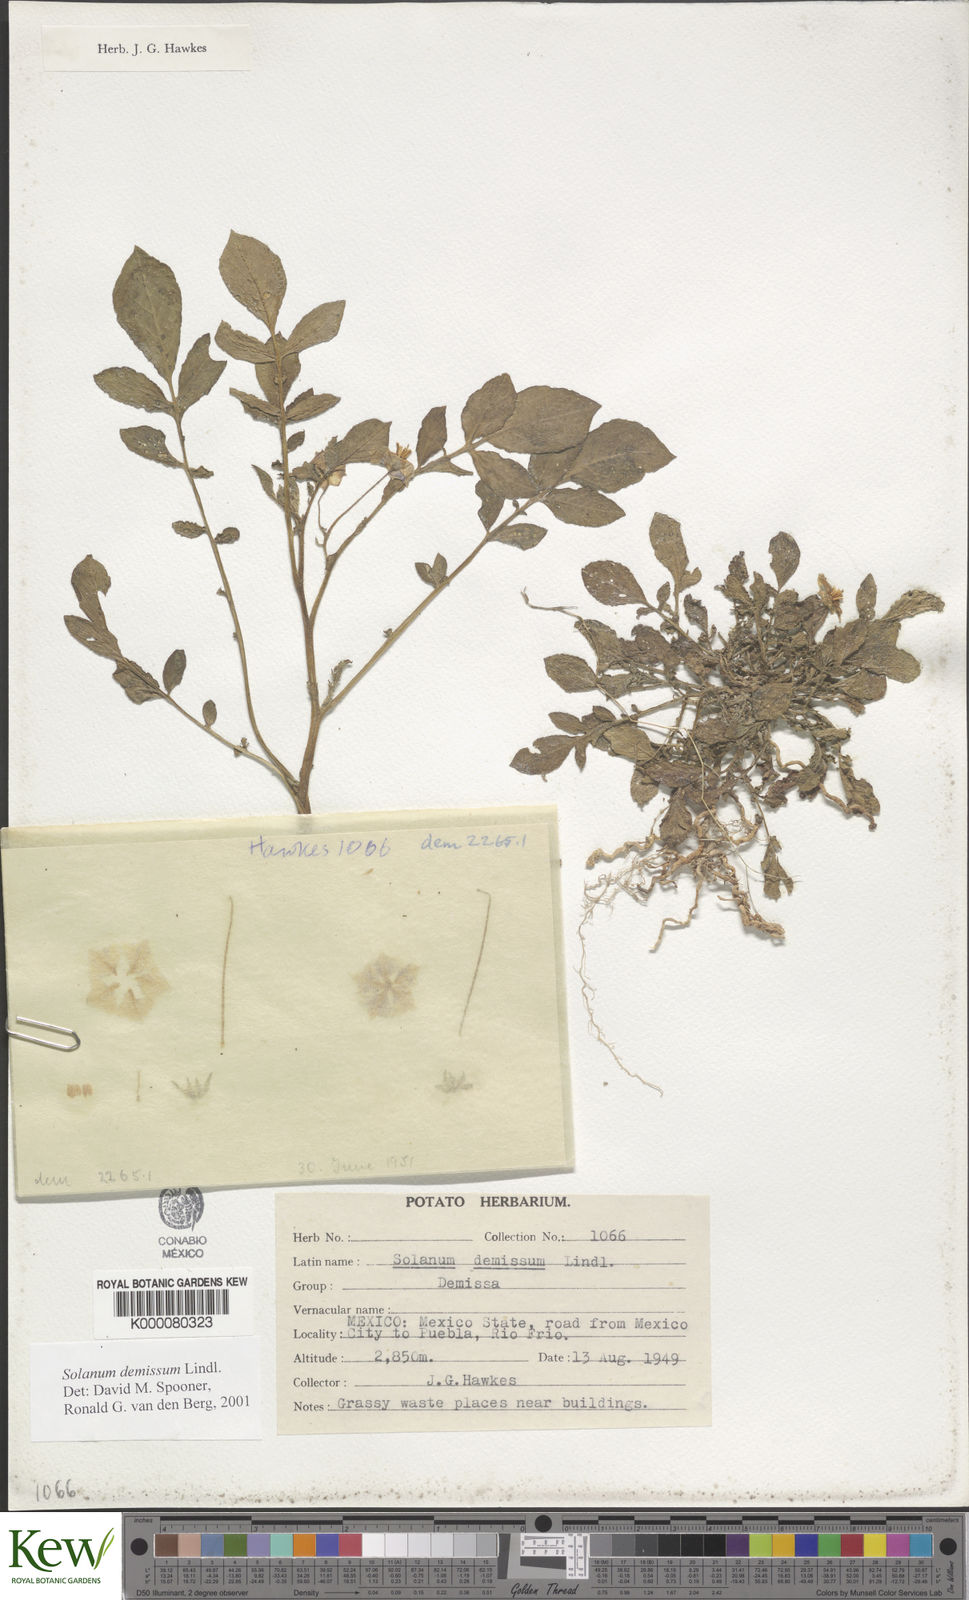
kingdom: Plantae
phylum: Tracheophyta
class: Magnoliopsida
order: Solanales
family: Solanaceae
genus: Solanum
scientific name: Solanum demissum
